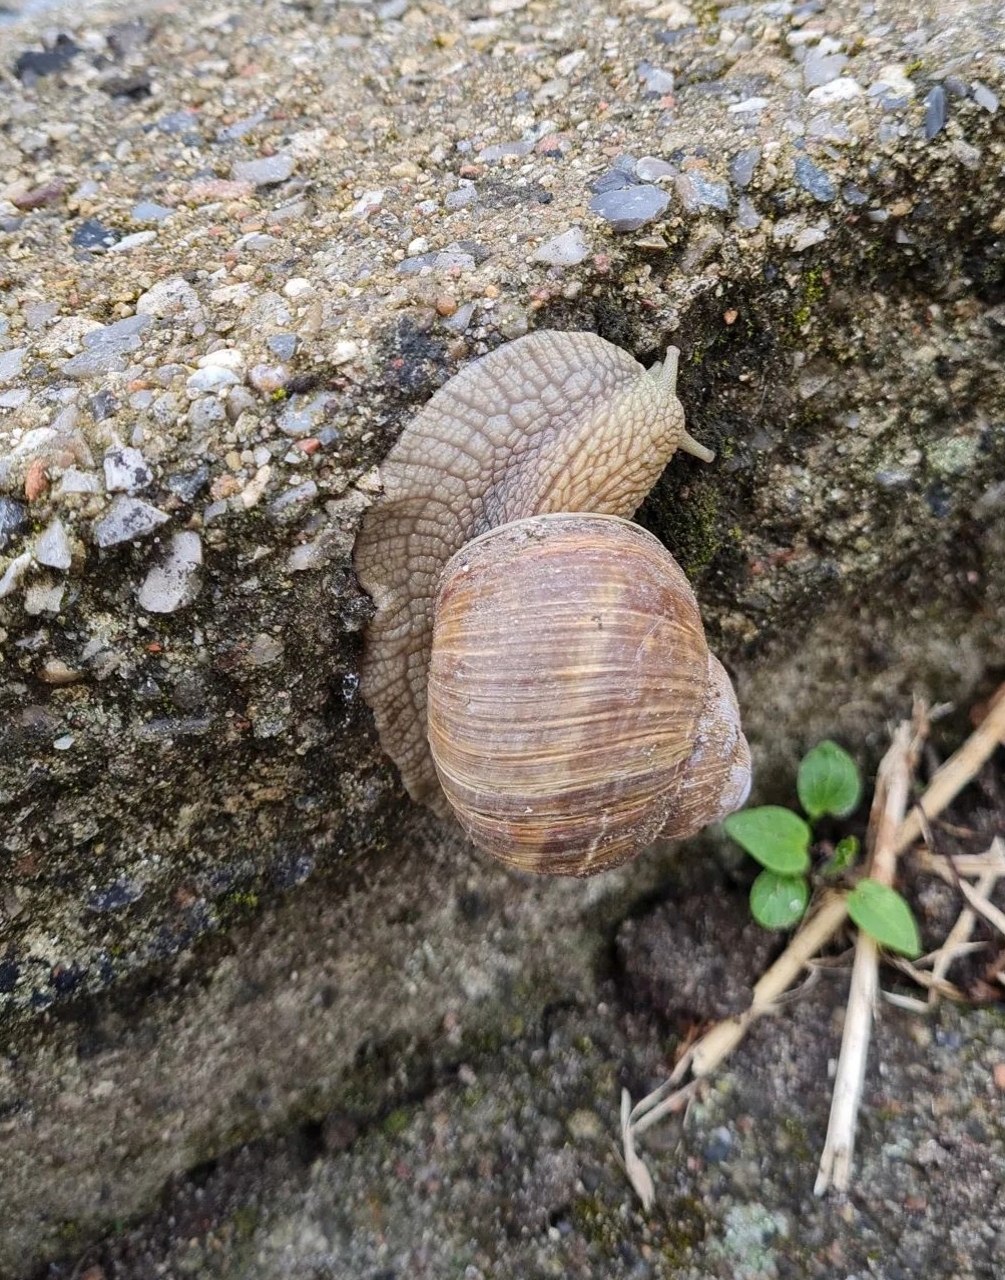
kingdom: Animalia
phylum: Mollusca
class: Gastropoda
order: Stylommatophora
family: Helicidae
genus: Helix
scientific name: Helix pomatia
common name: Vinbjergsnegl
